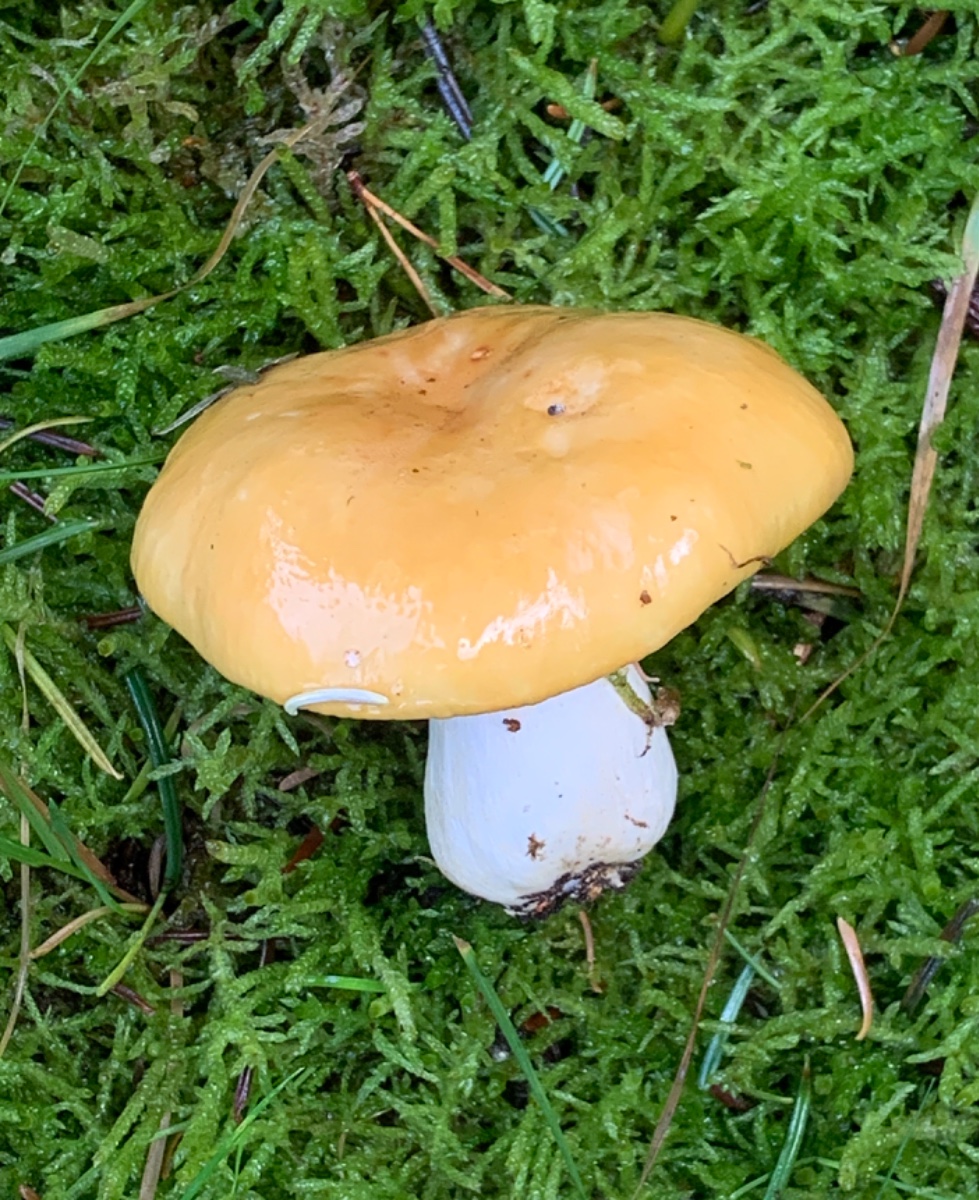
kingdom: Fungi
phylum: Basidiomycota
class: Agaricomycetes
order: Russulales
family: Russulaceae
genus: Russula
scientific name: Russula ochroleuca
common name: okkergul skørhat
